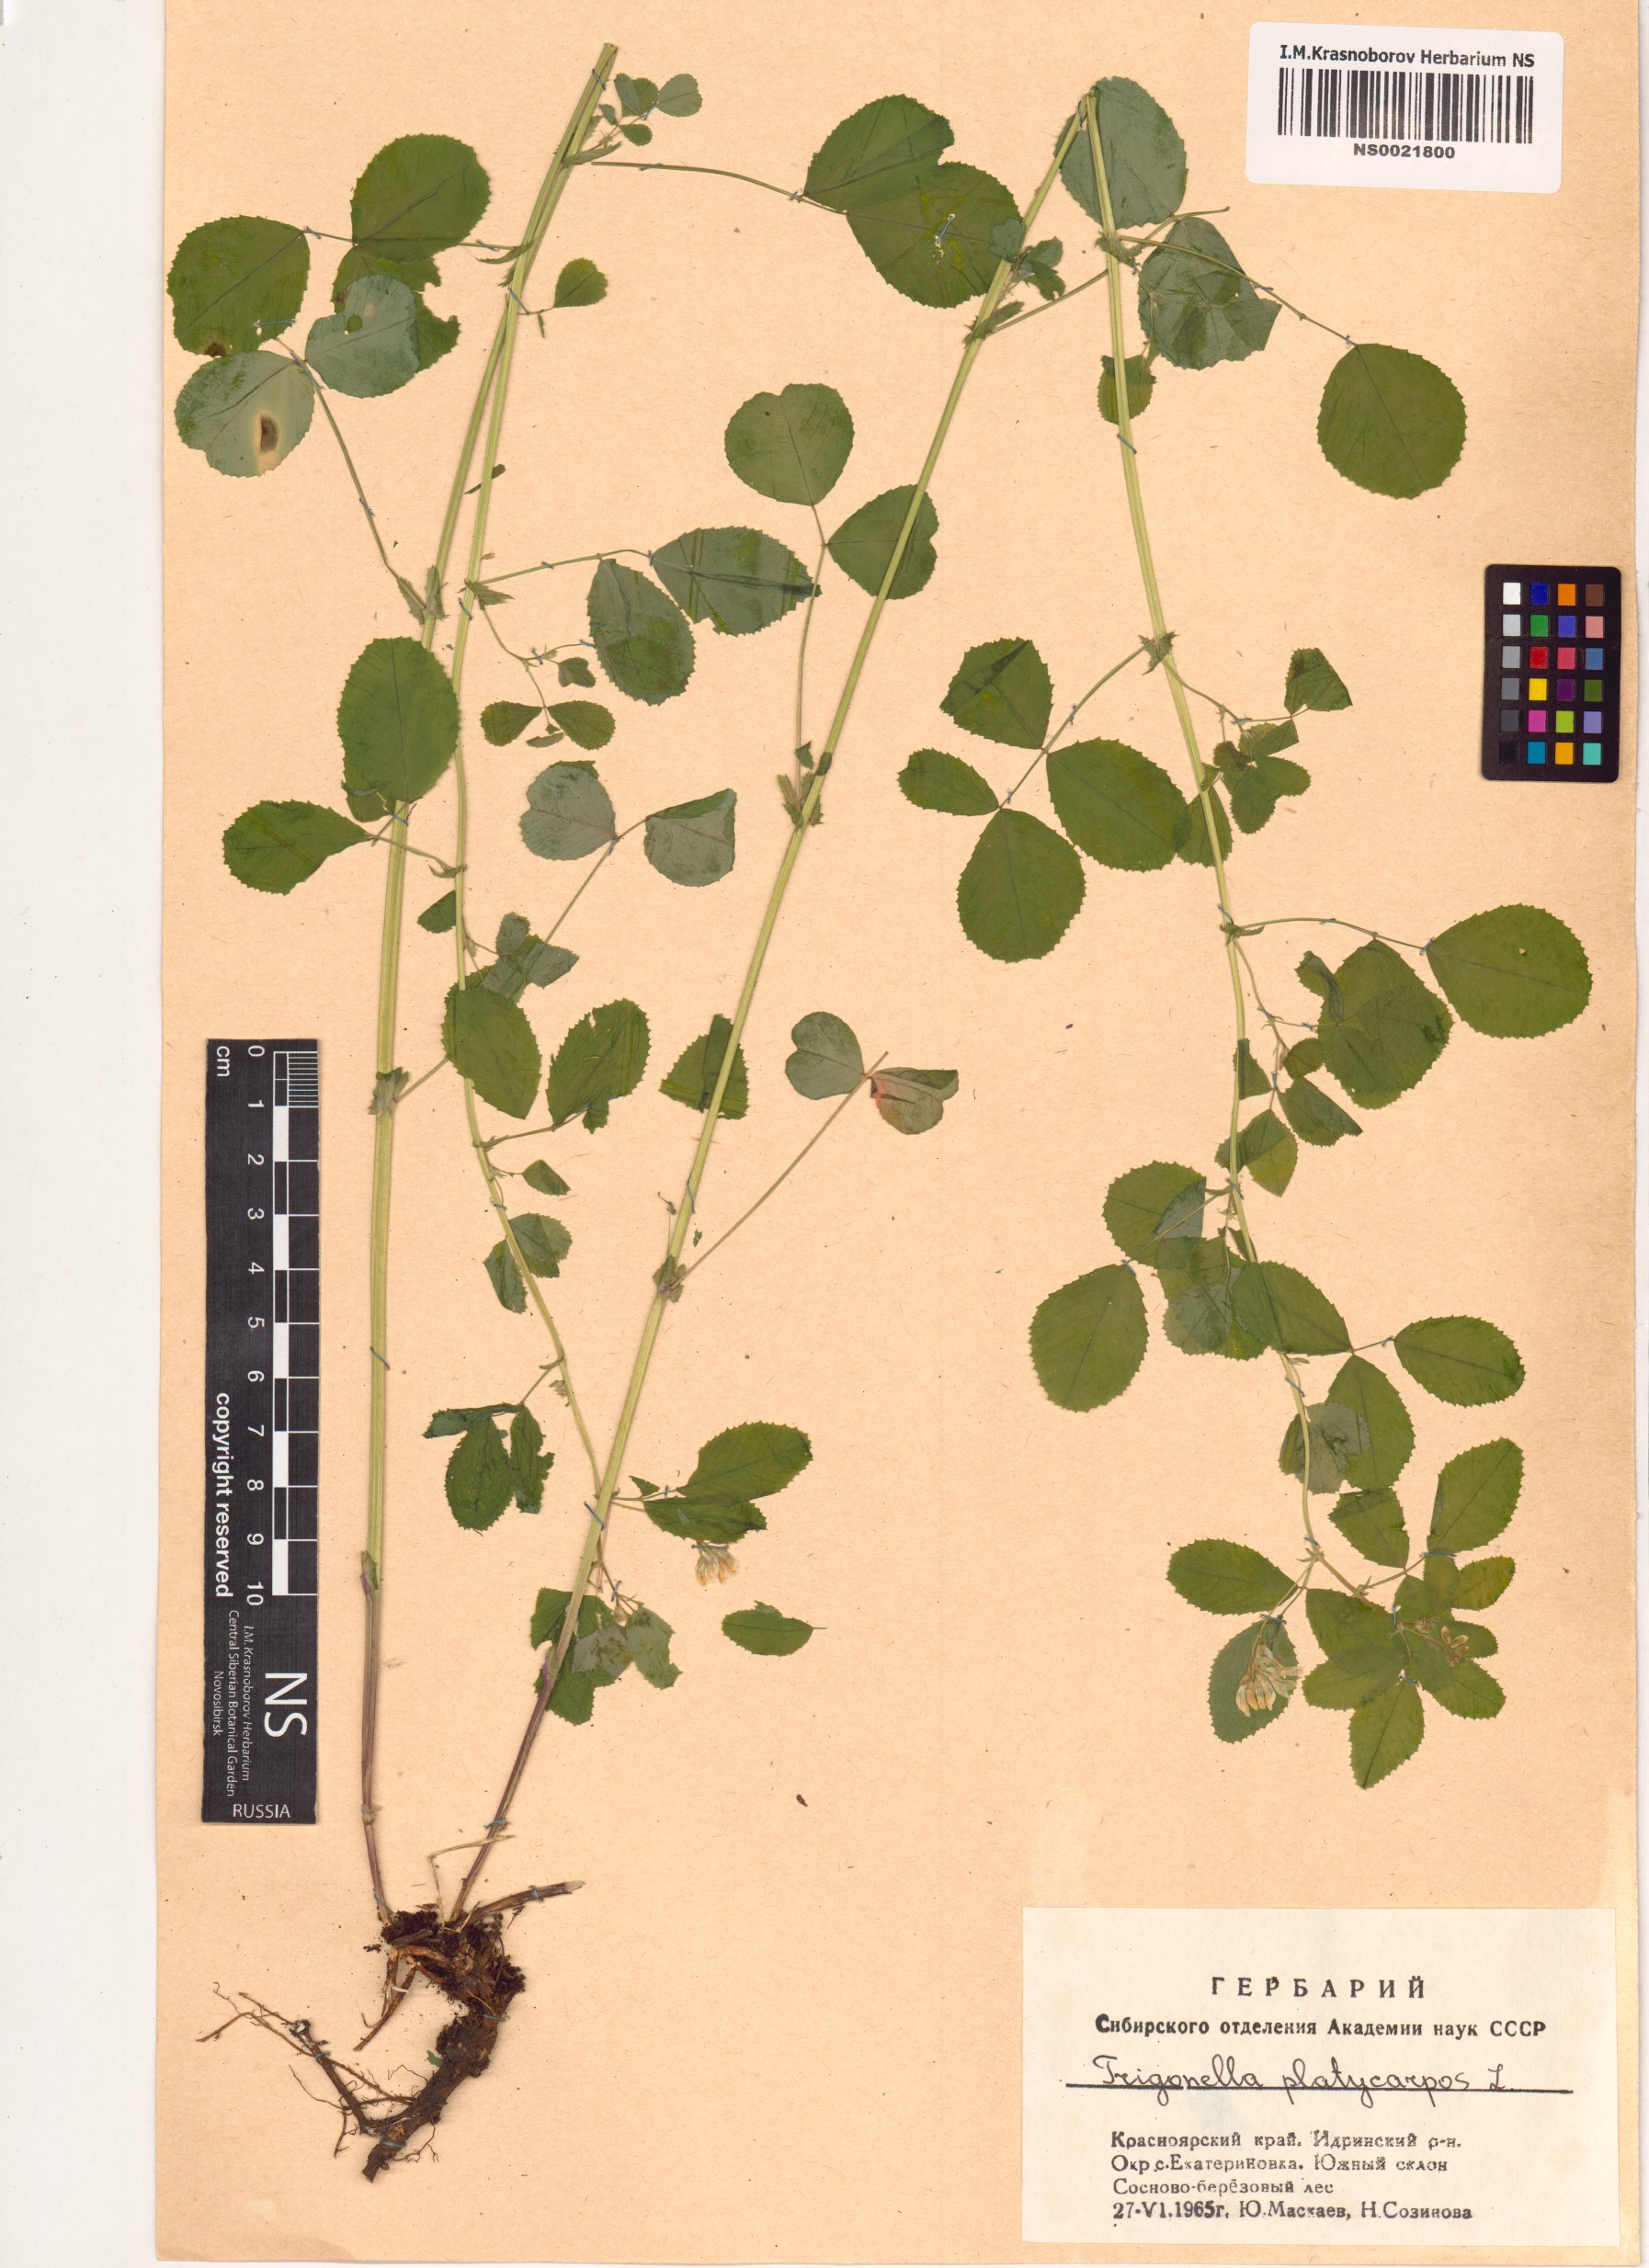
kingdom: Plantae
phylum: Tracheophyta
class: Magnoliopsida
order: Fabales
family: Fabaceae
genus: Medicago
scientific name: Medicago platycarpos
